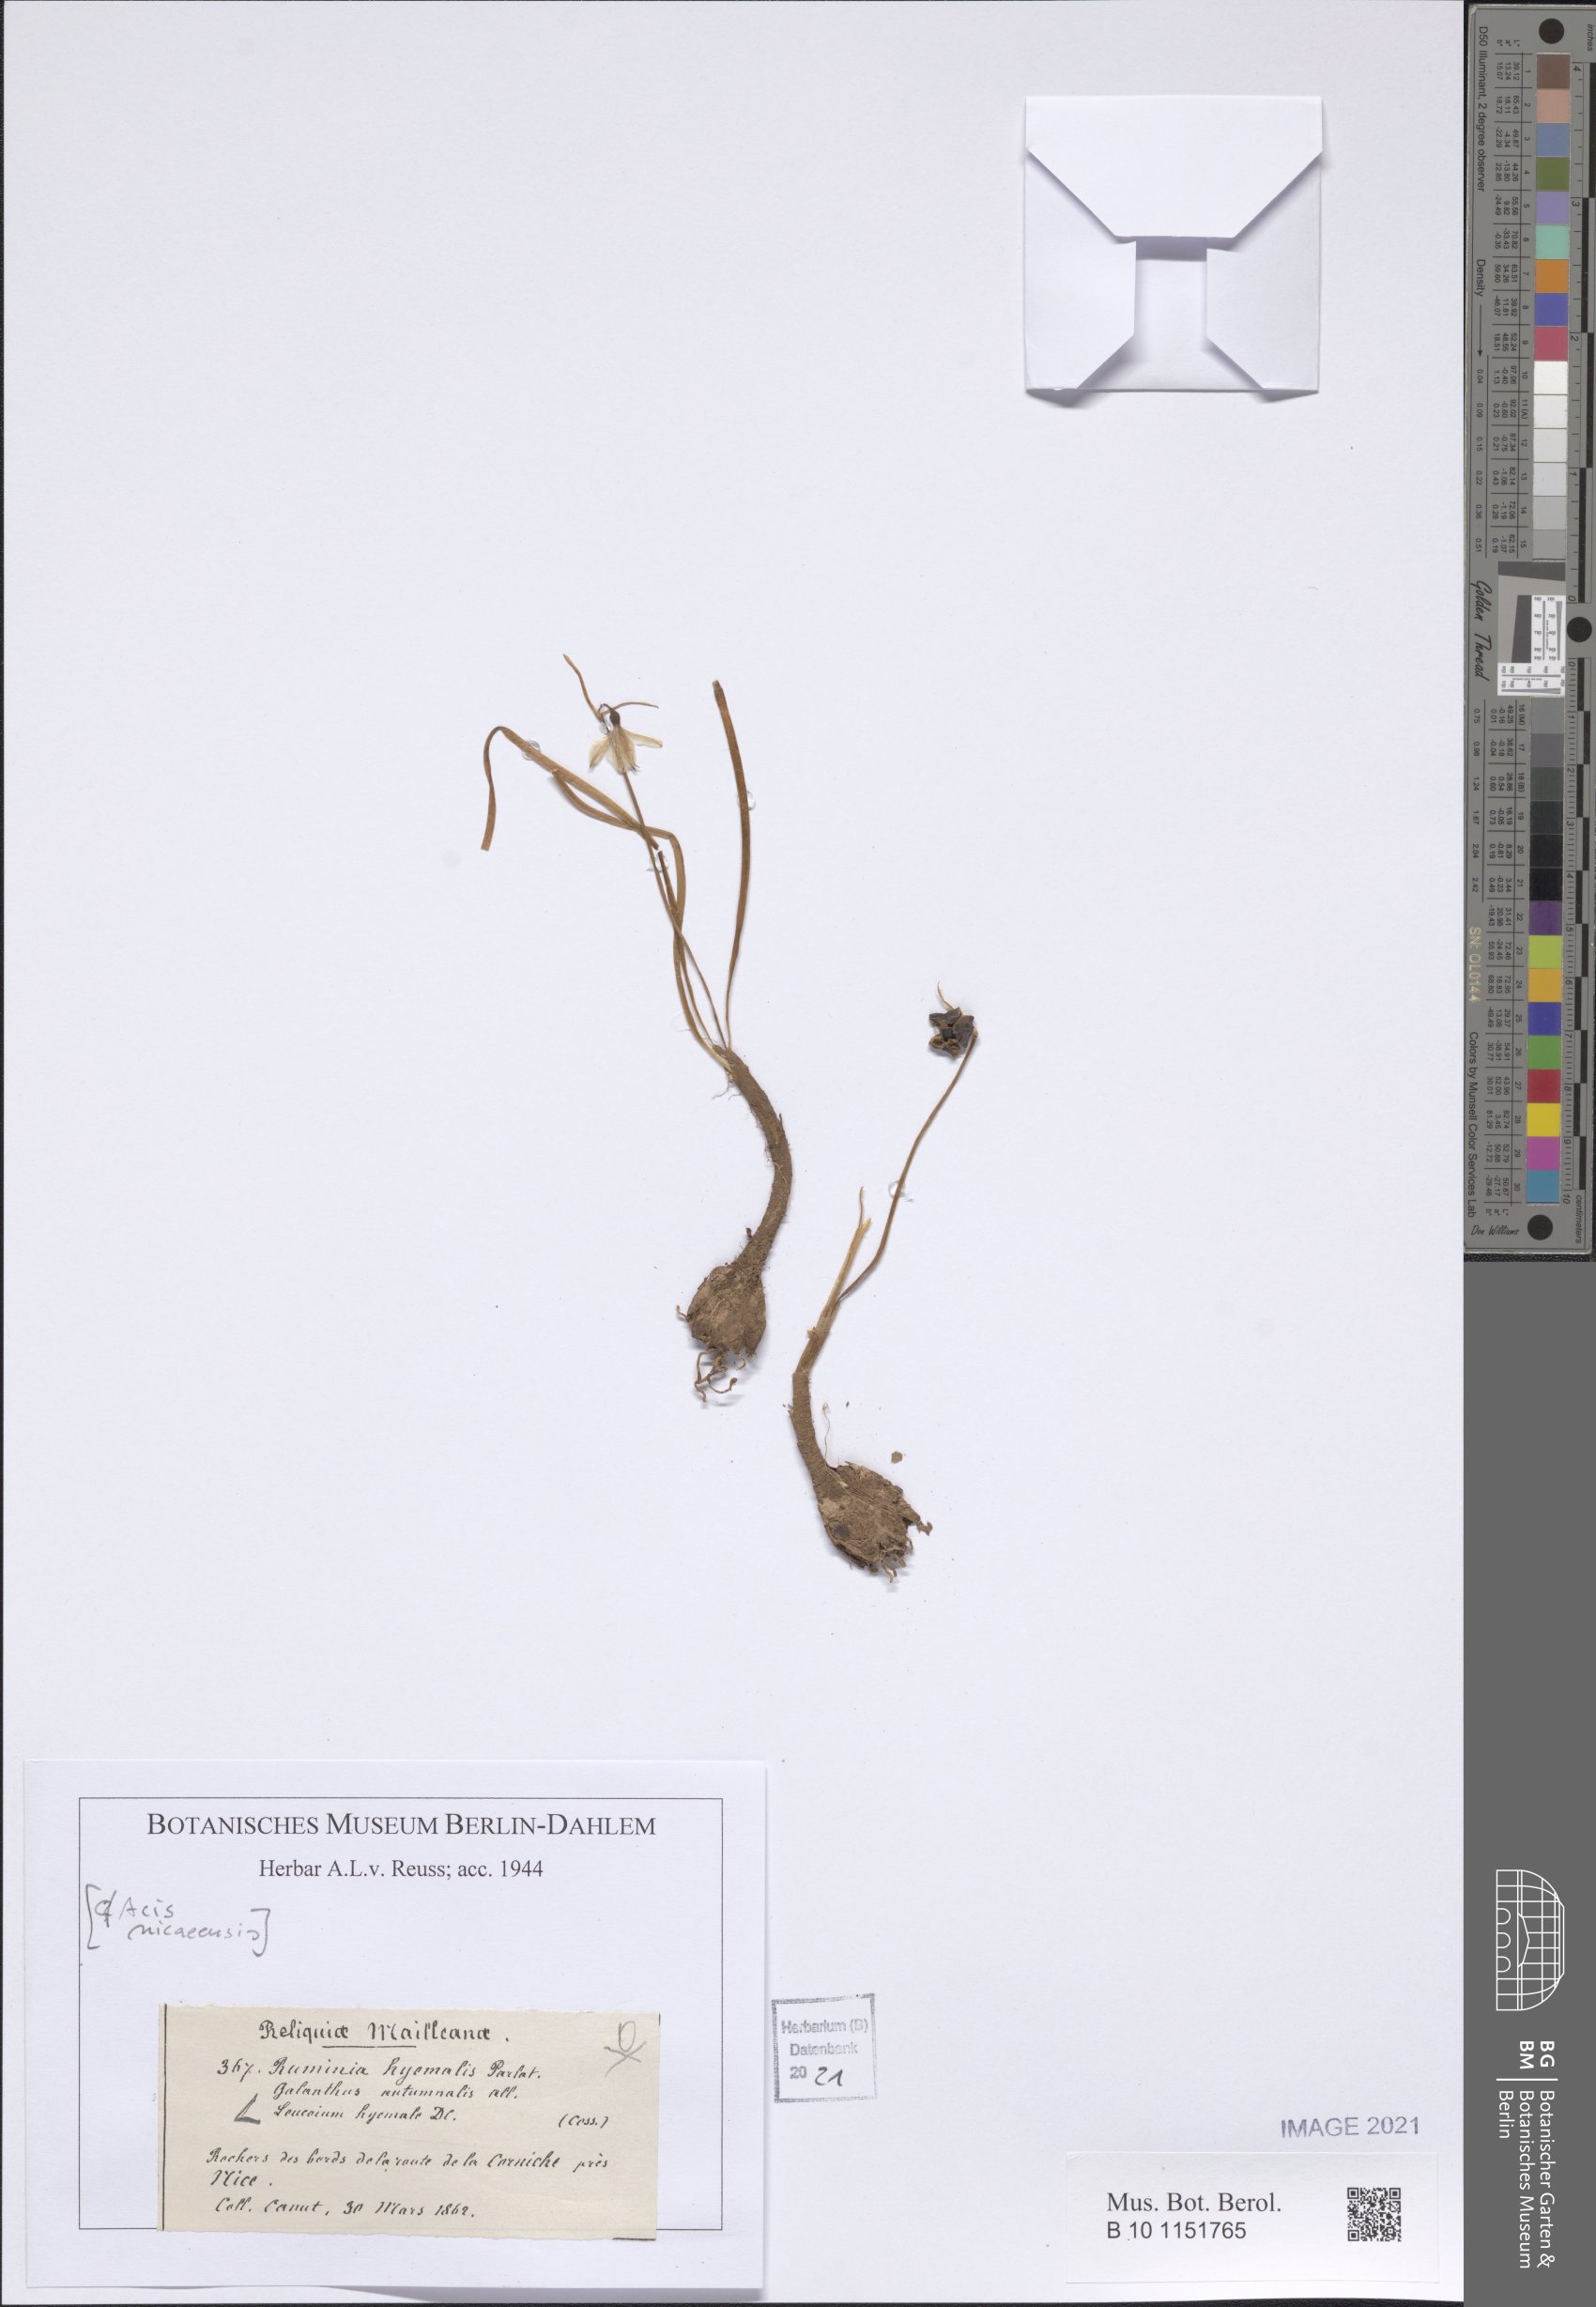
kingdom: Plantae
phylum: Tracheophyta
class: Liliopsida
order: Asparagales
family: Amaryllidaceae
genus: Acis
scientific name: Acis rosea
